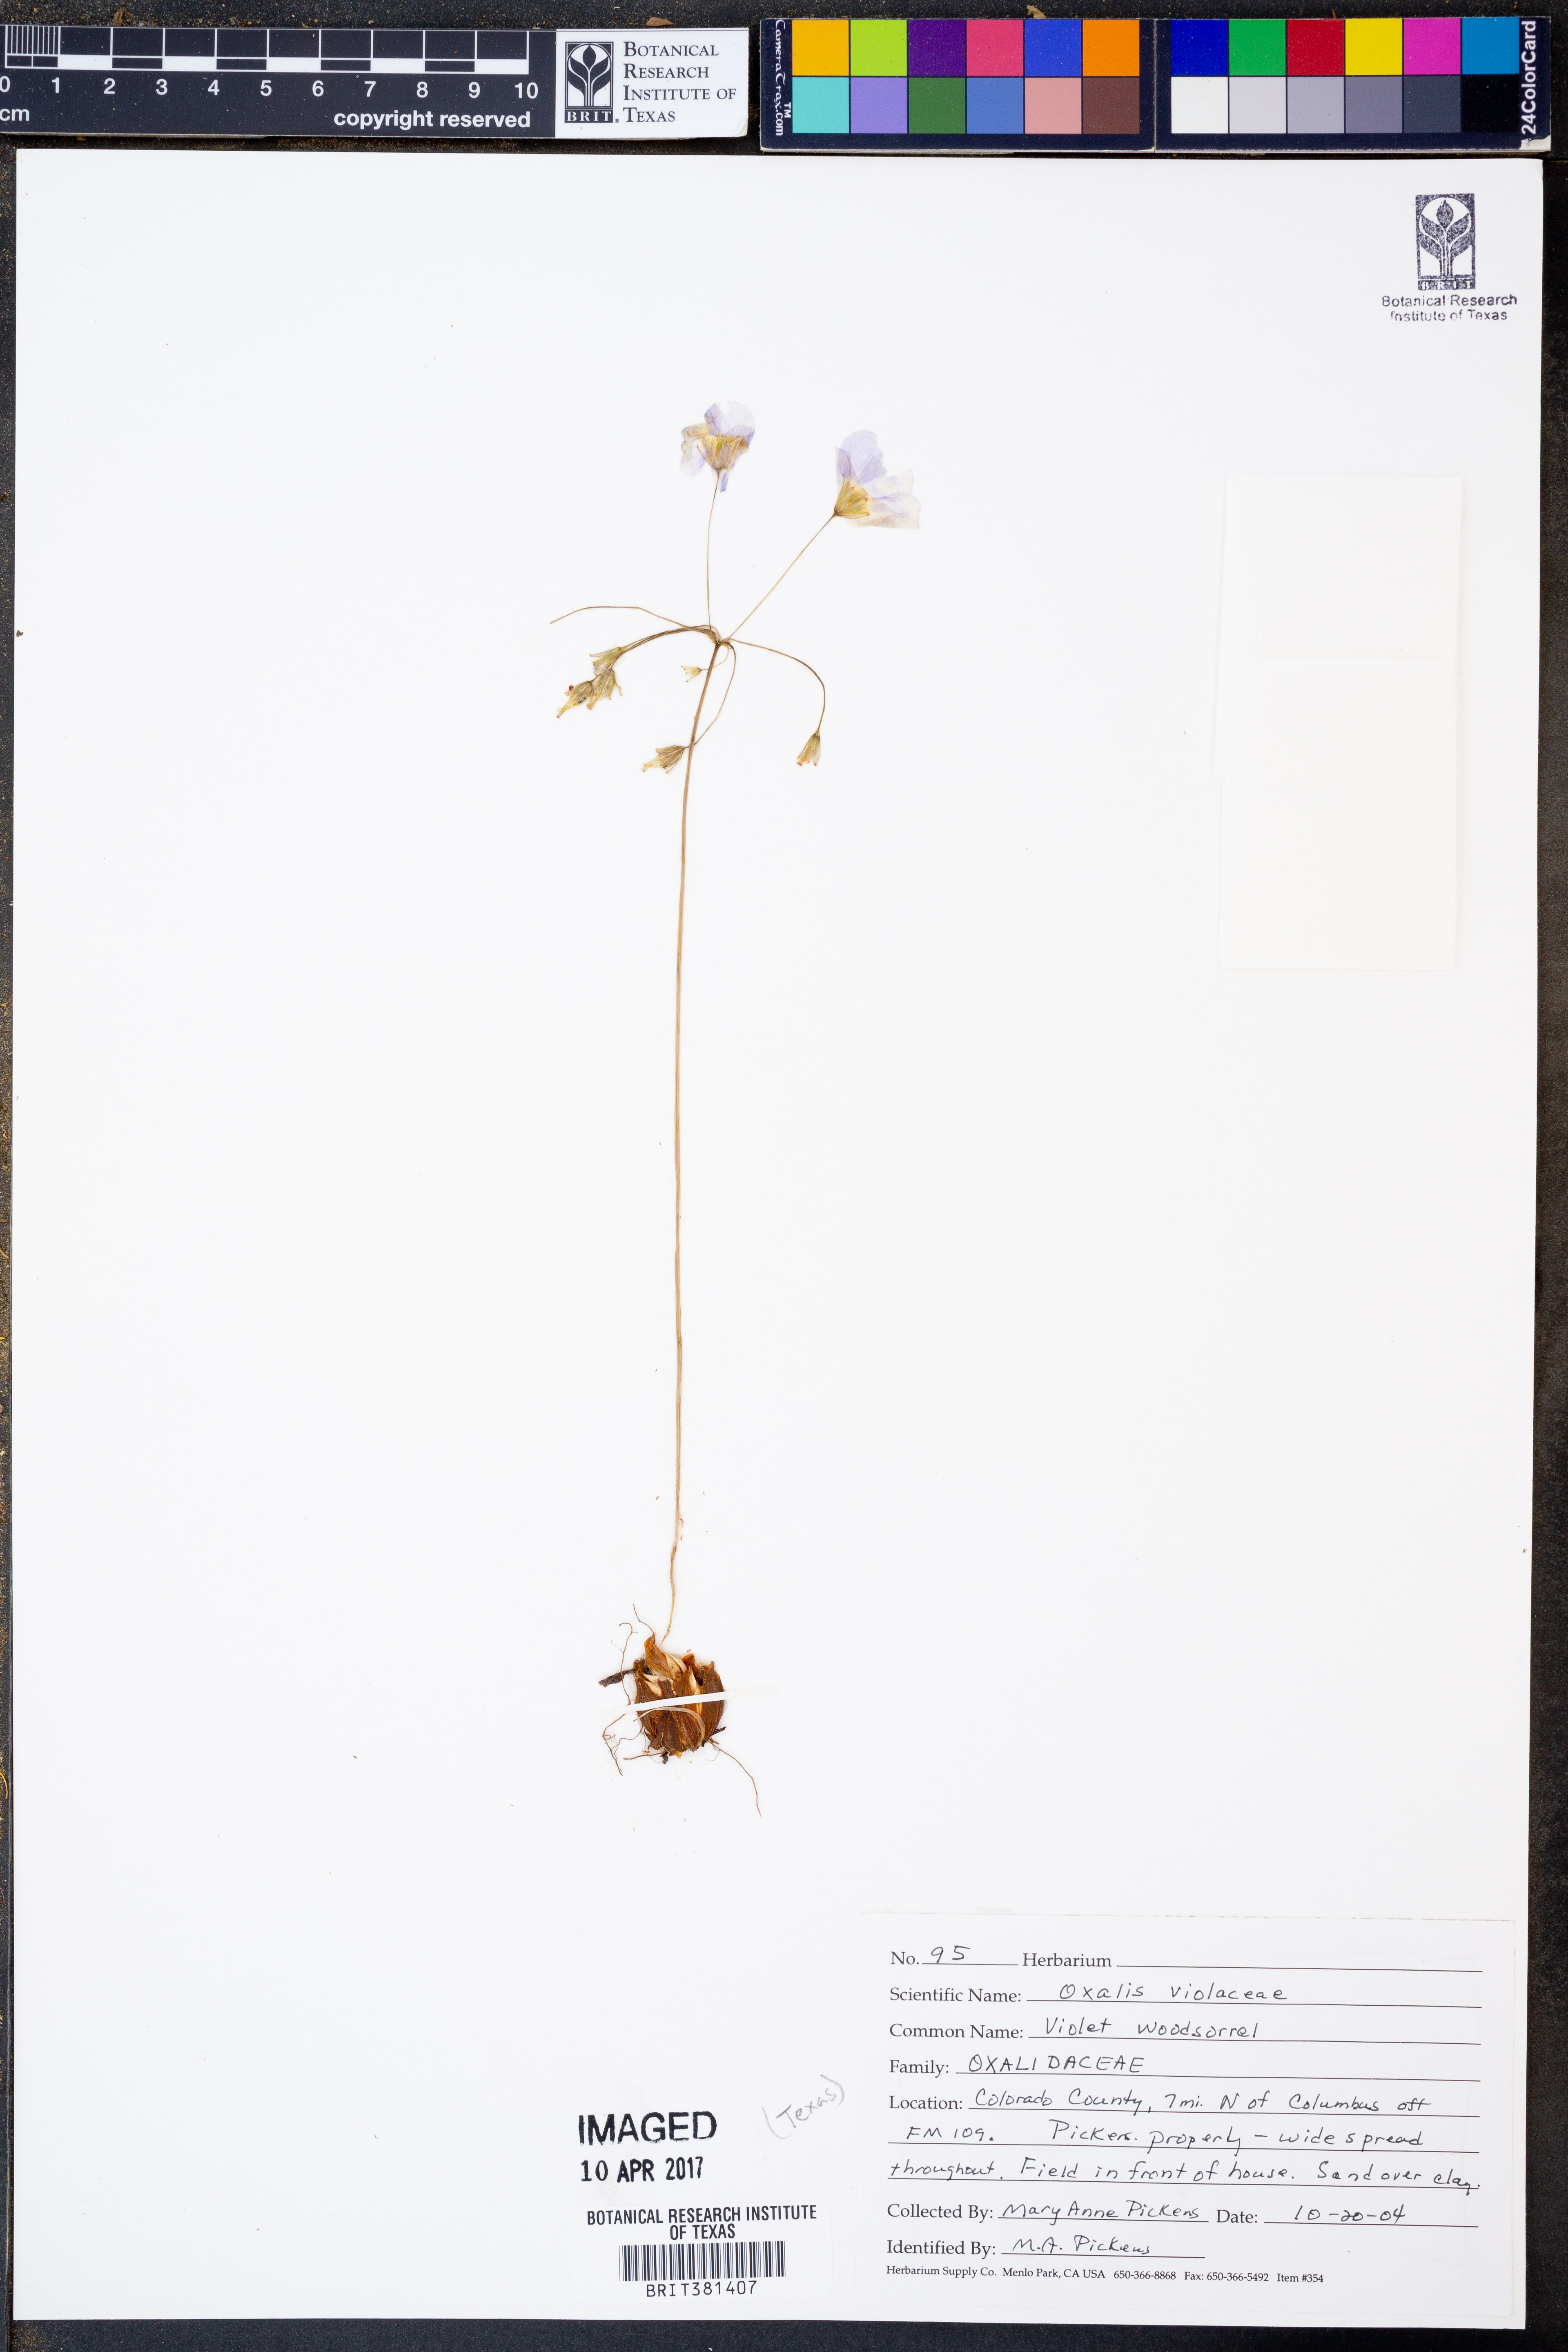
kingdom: Plantae
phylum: Tracheophyta
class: Magnoliopsida
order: Oxalidales
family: Oxalidaceae
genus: Oxalis
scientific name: Oxalis violacea
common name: Violet wood-sorrel
